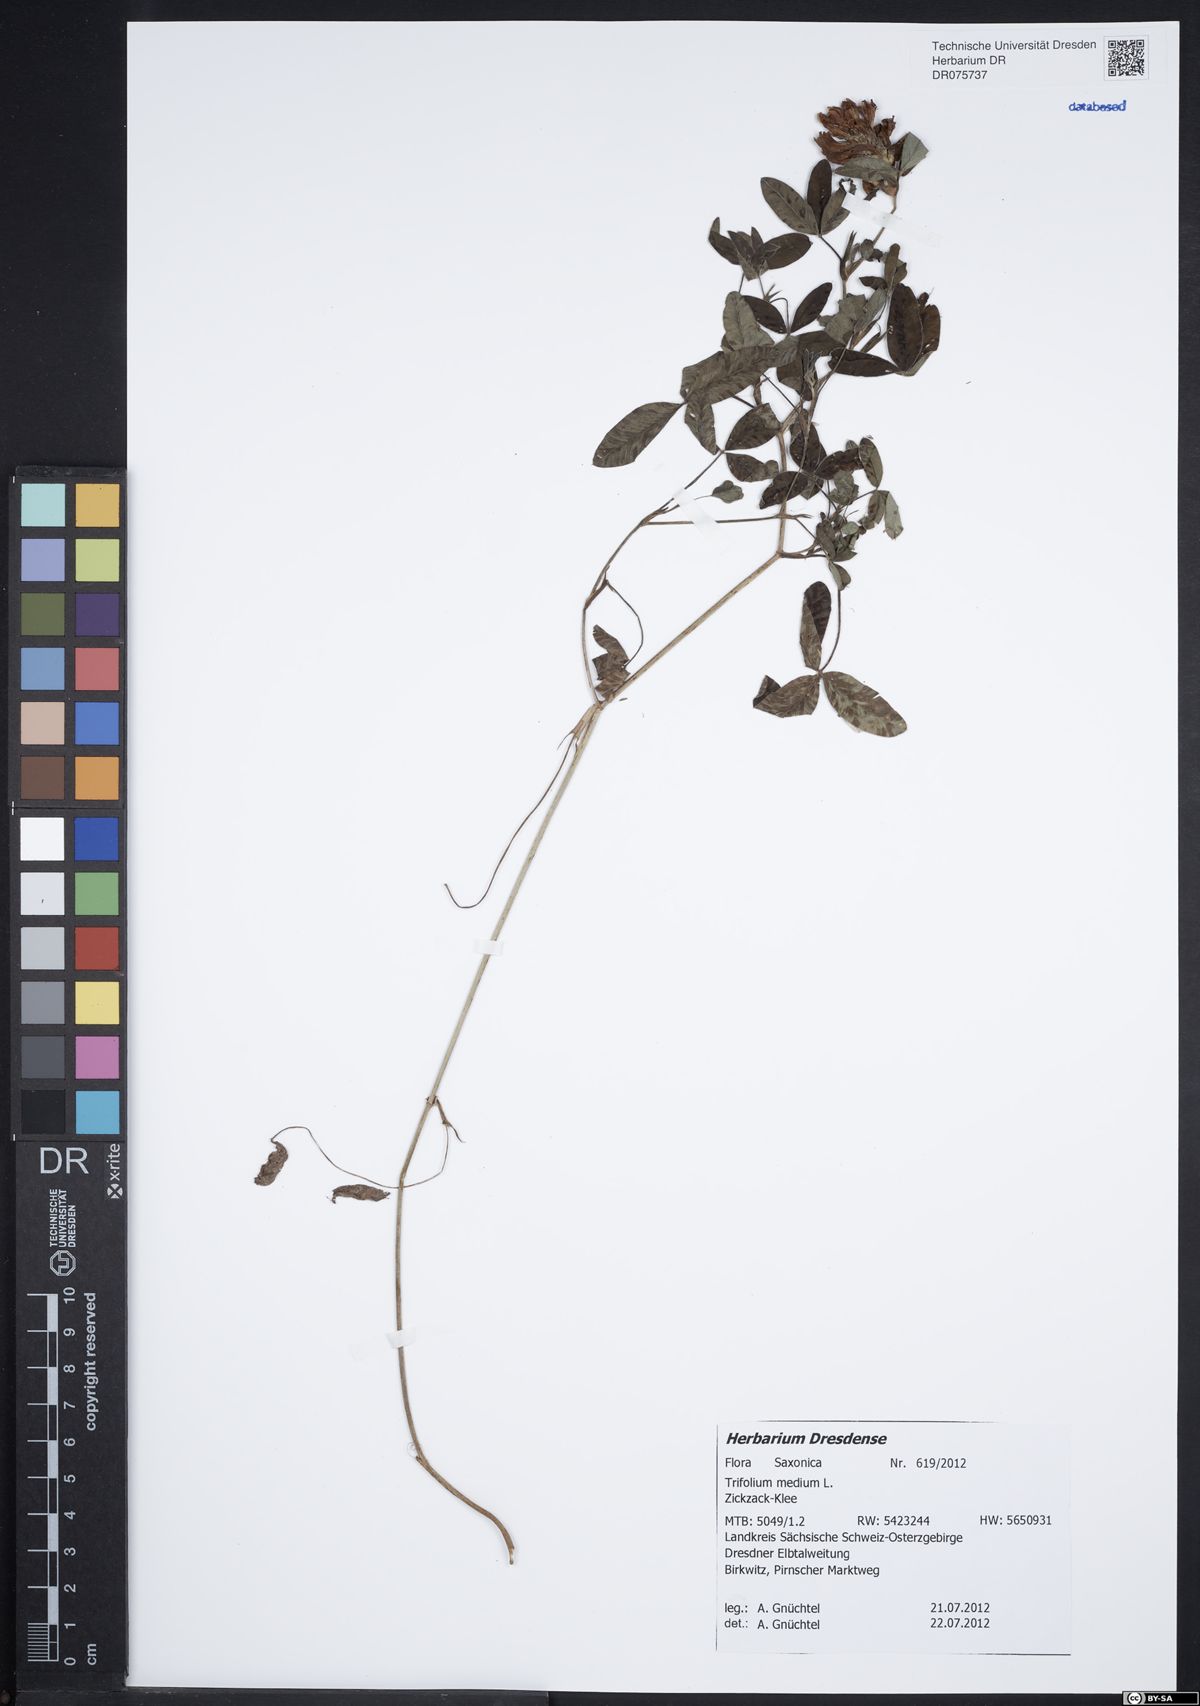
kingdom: Plantae
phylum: Tracheophyta
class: Magnoliopsida
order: Fabales
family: Fabaceae
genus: Trifolium
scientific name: Trifolium medium
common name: Zigzag clover
